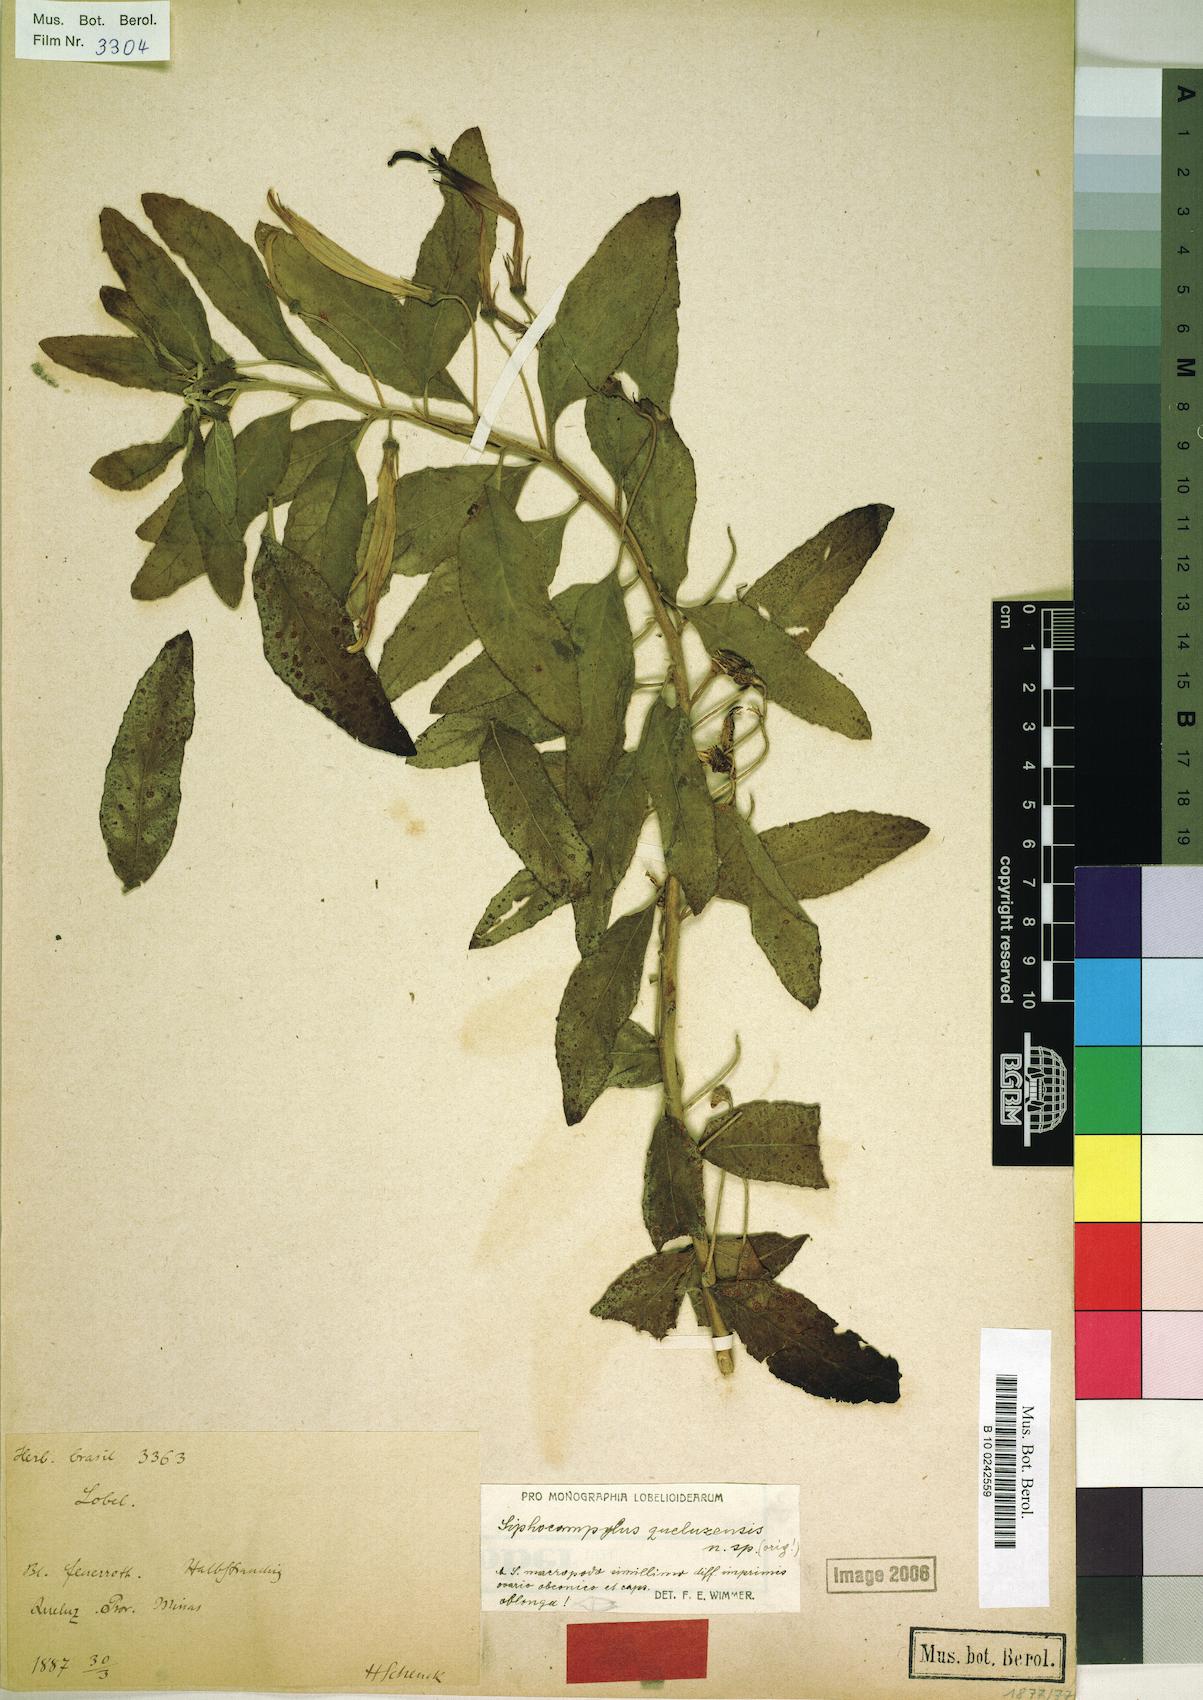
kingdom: Plantae
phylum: Tracheophyta
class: Magnoliopsida
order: Asterales
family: Campanulaceae
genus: Siphocampylus
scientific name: Siphocampylus queluzensis
